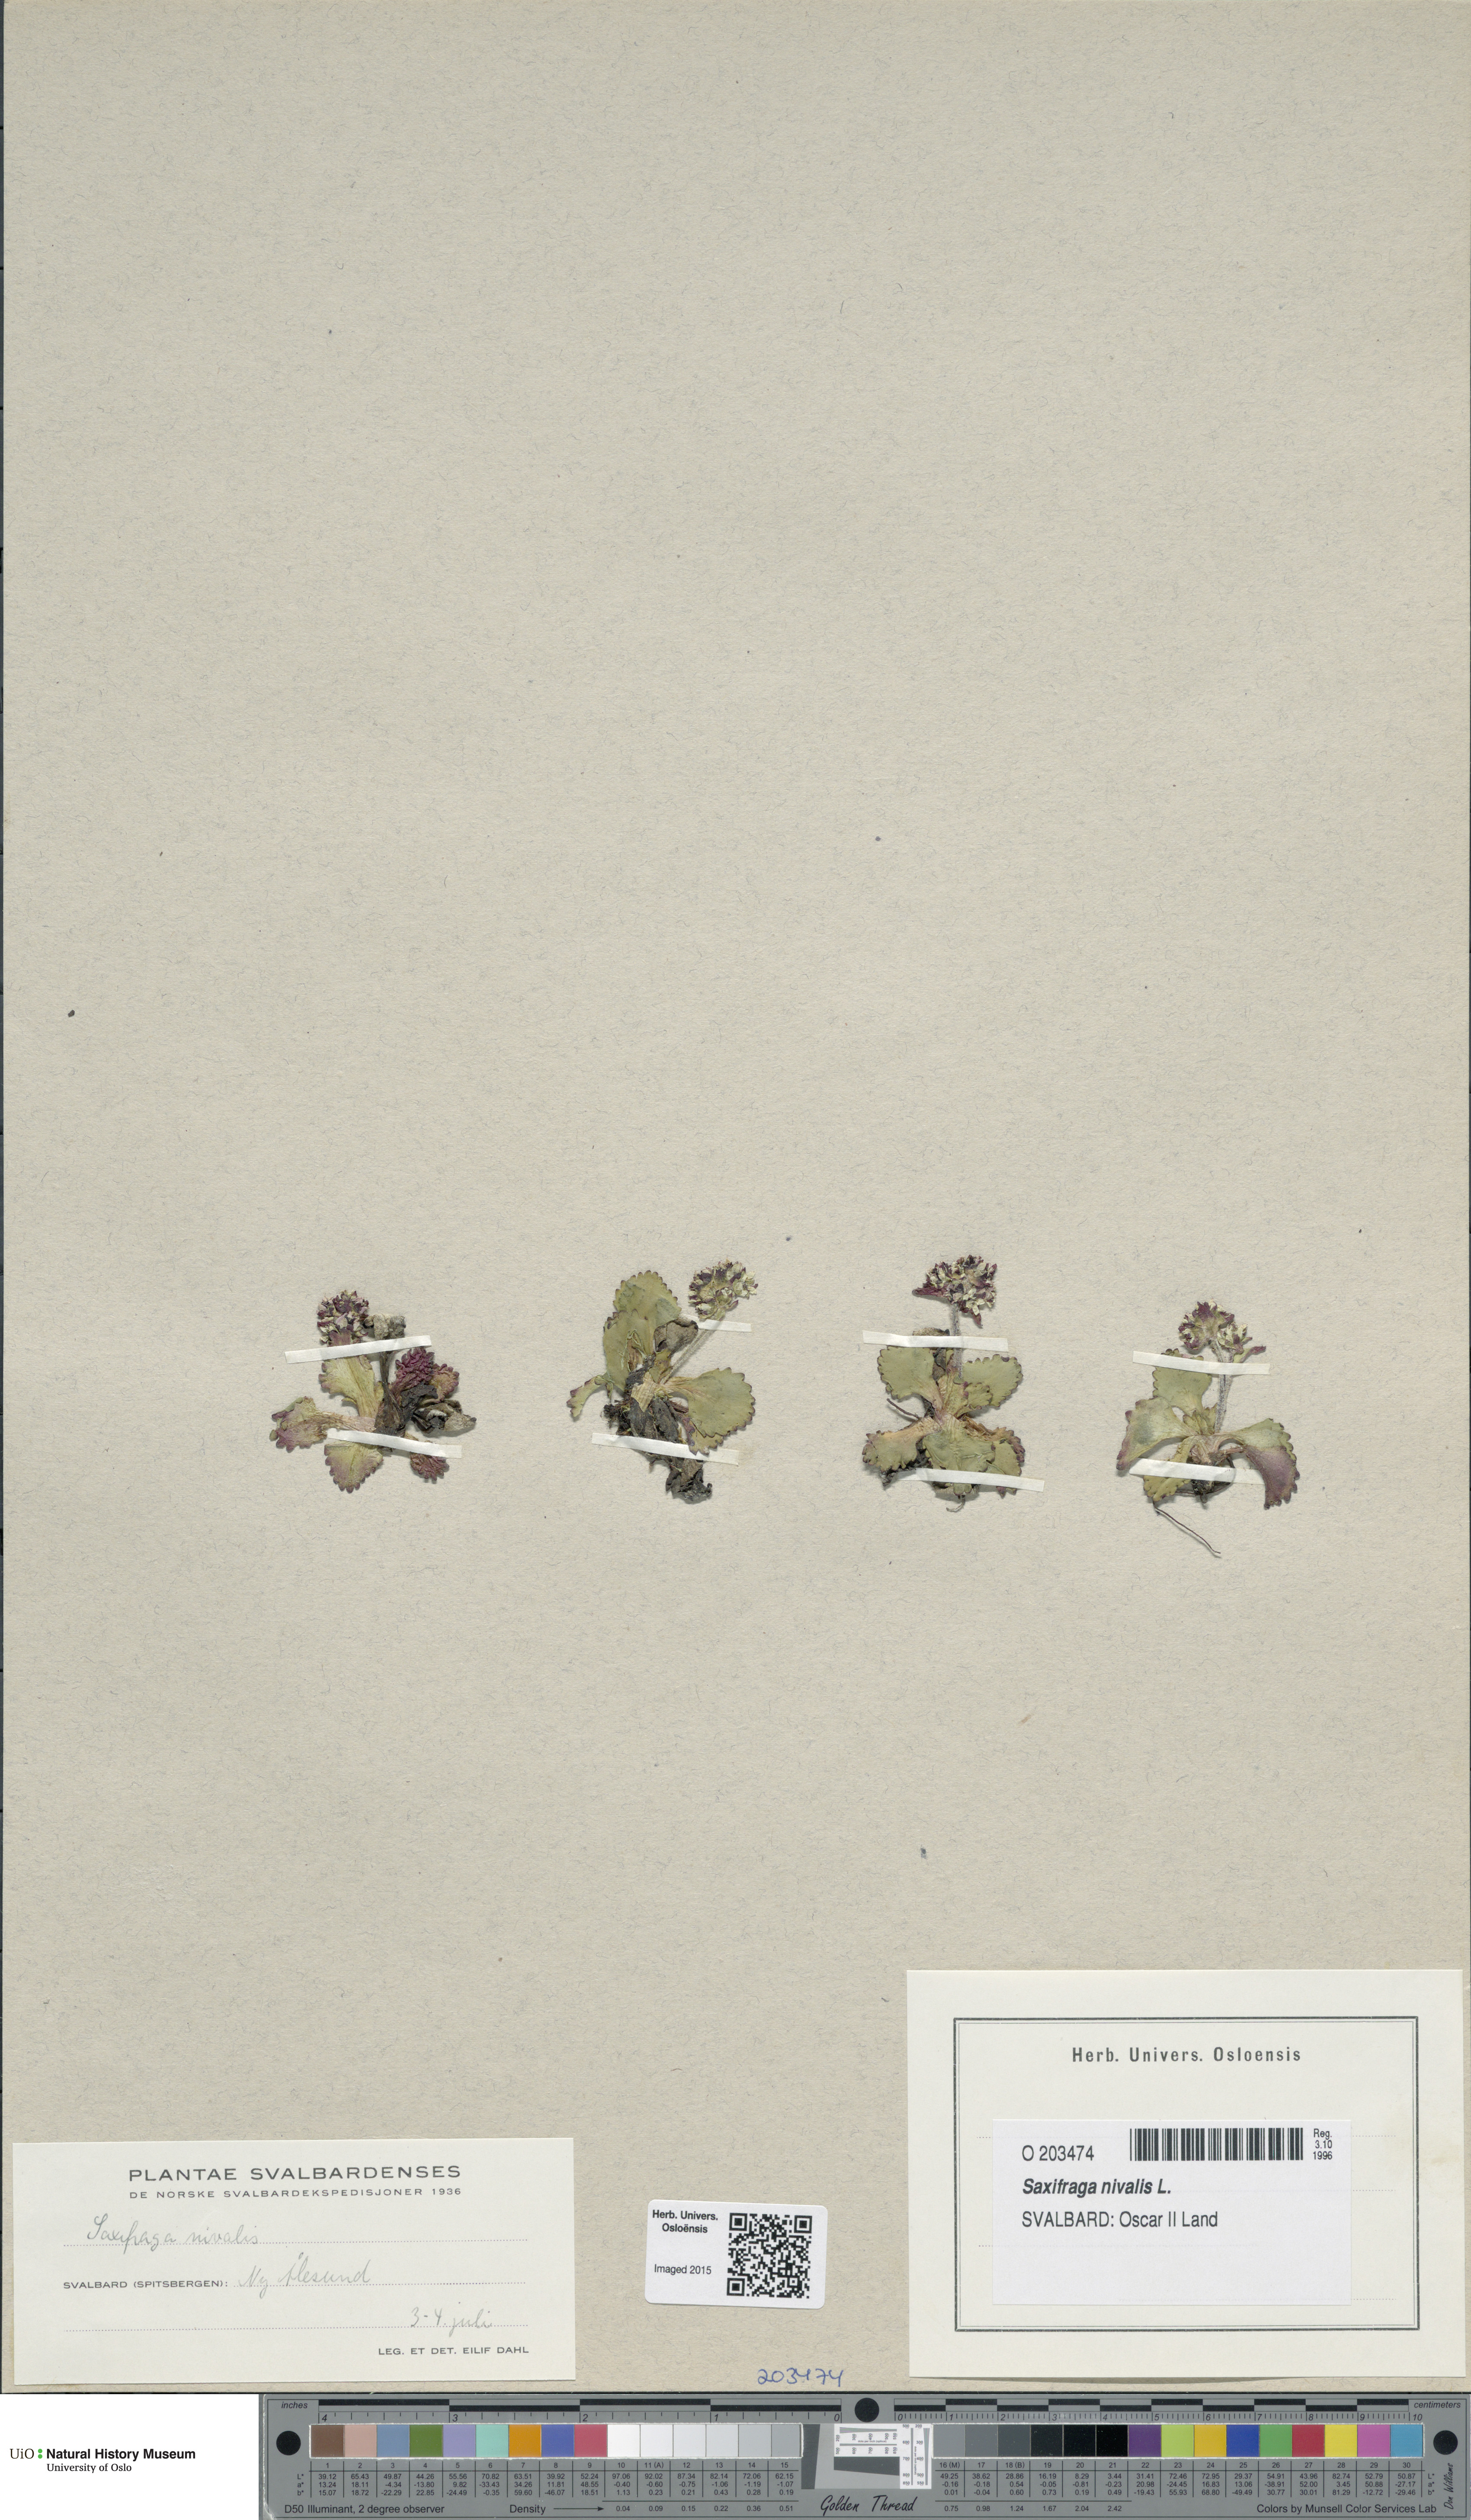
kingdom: Plantae
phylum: Tracheophyta
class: Magnoliopsida
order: Saxifragales
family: Saxifragaceae
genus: Micranthes
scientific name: Micranthes nivalis
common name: Alpine saxifrage
